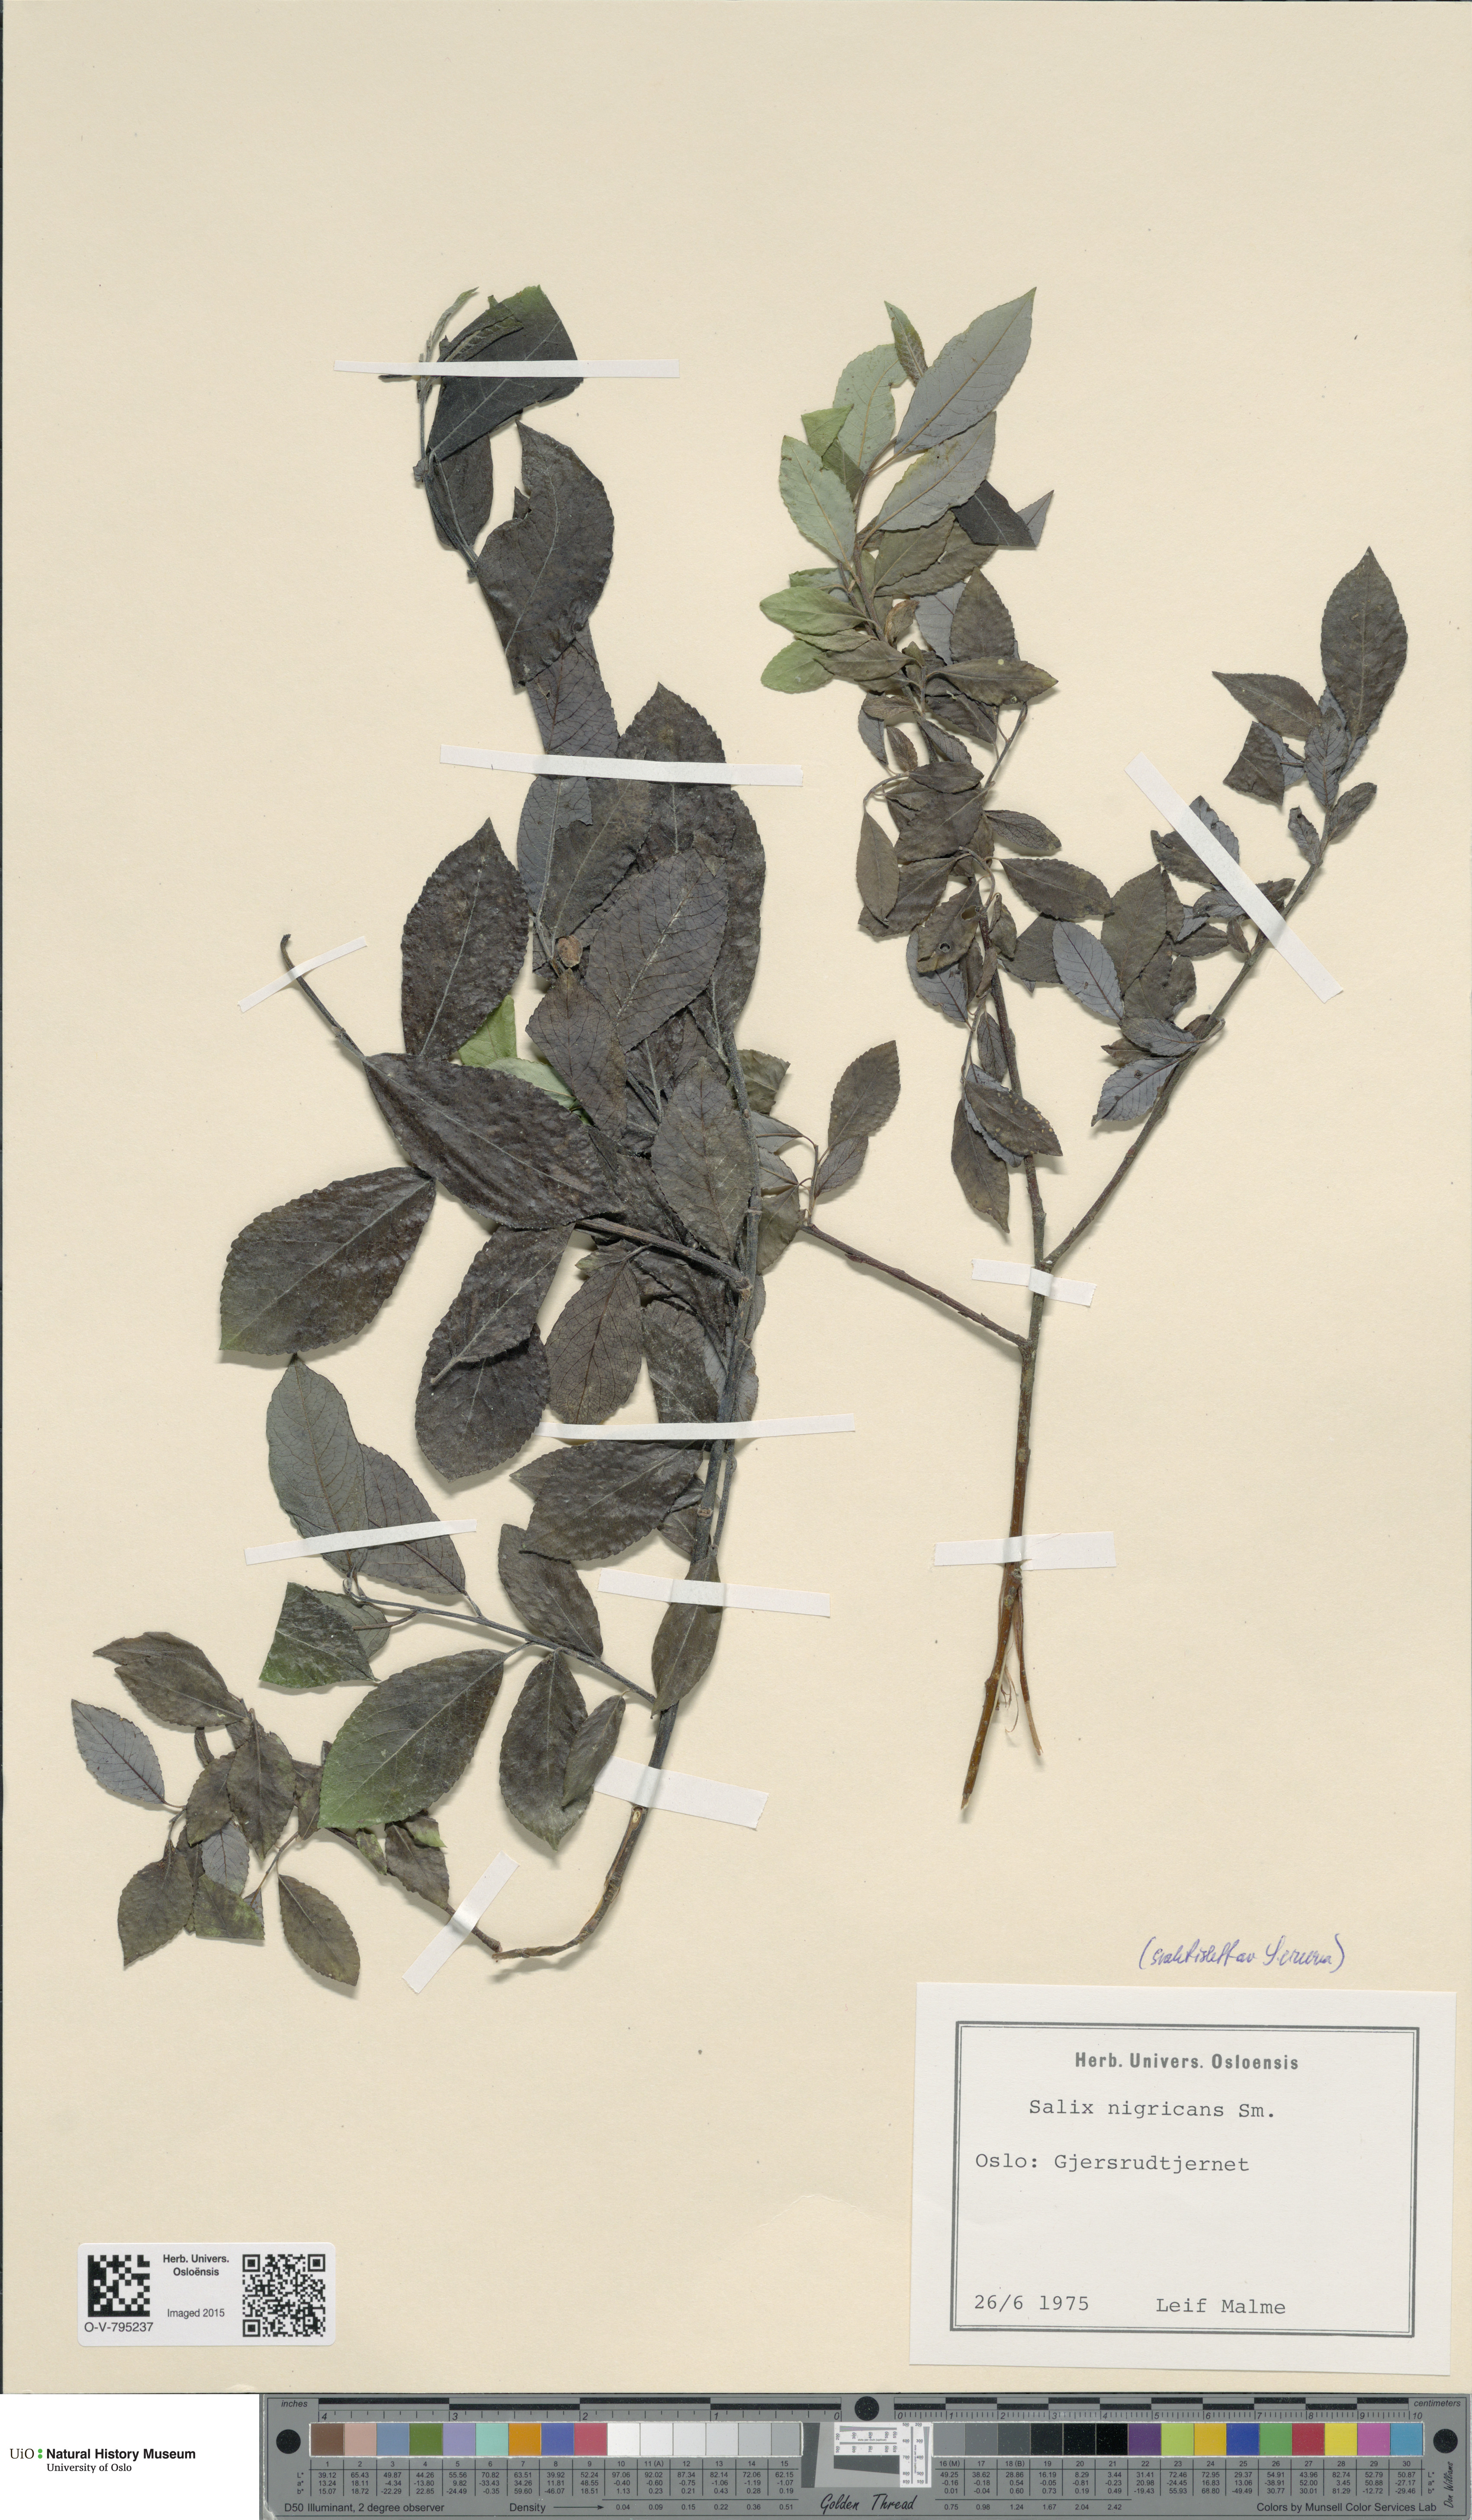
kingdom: Plantae
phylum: Tracheophyta
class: Magnoliopsida
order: Malpighiales
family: Salicaceae
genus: Salix
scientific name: Salix myrsinifolia
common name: Dark-leaved willow
